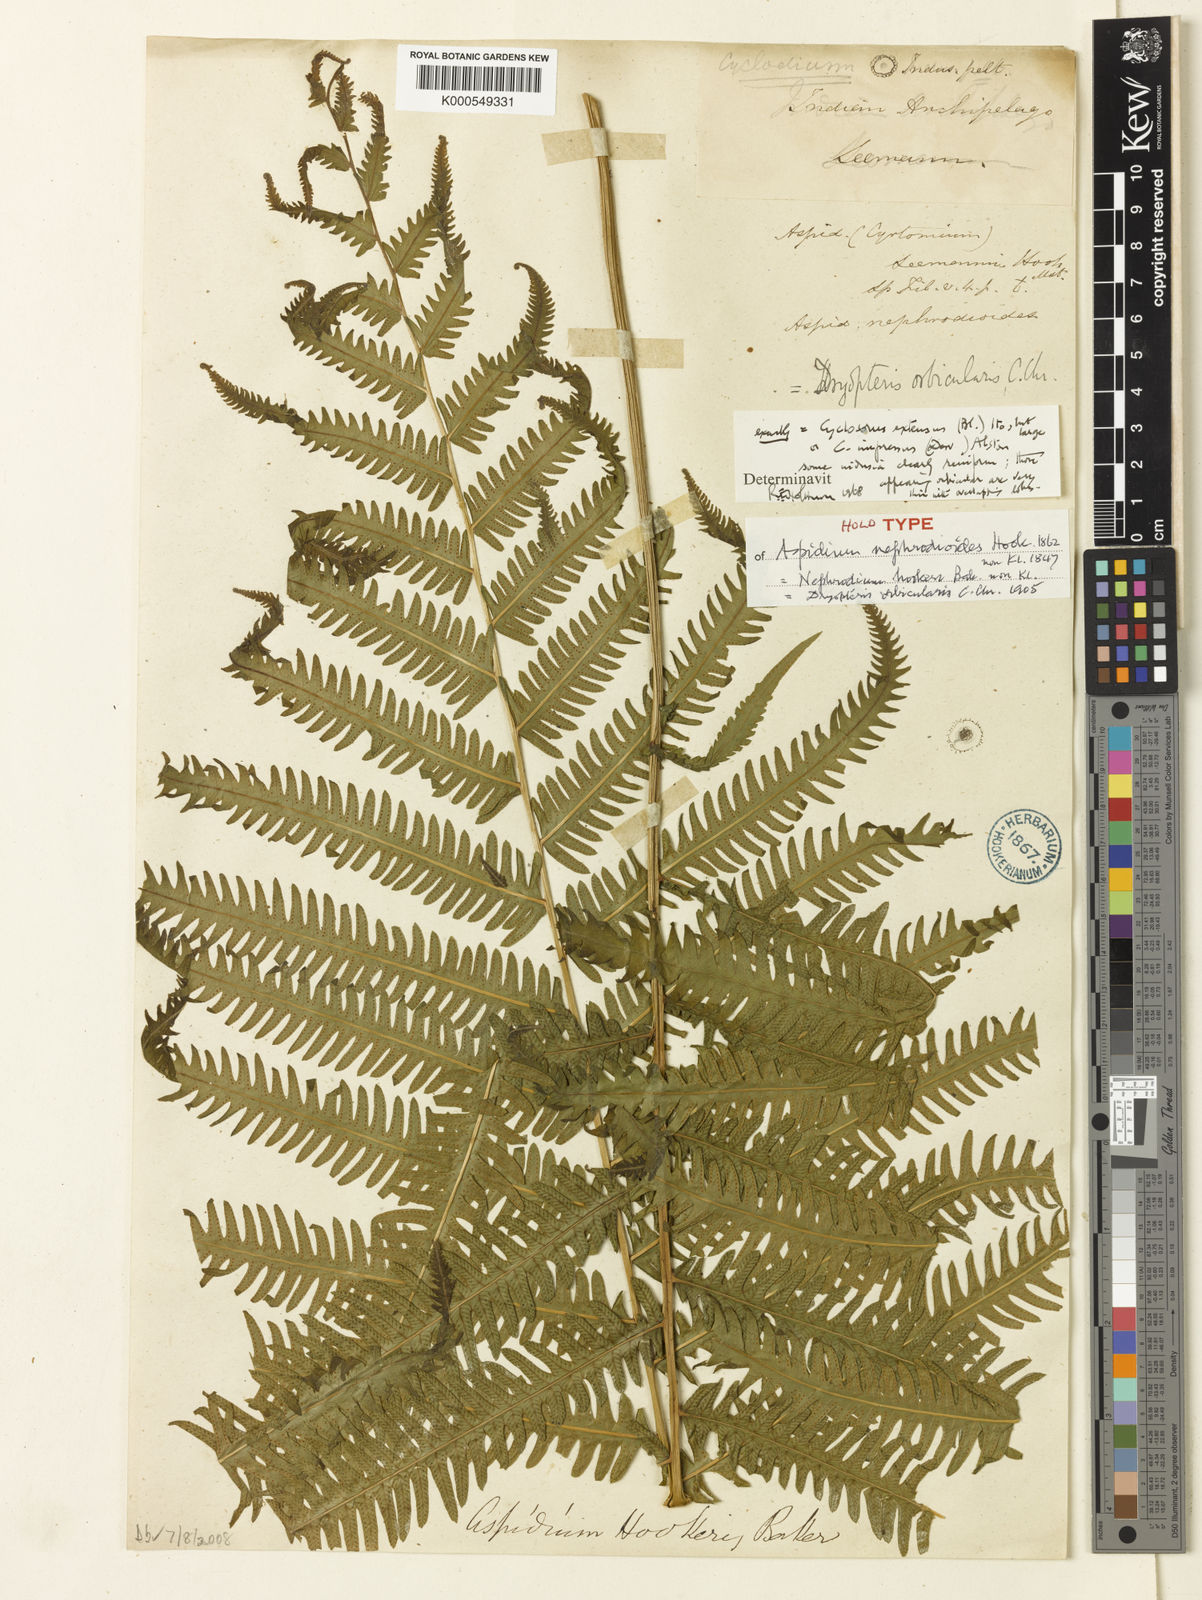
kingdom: Plantae
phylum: Tracheophyta
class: Polypodiopsida
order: Polypodiales
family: Thelypteridaceae
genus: Amblovenatum
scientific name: Amblovenatum opulentum
